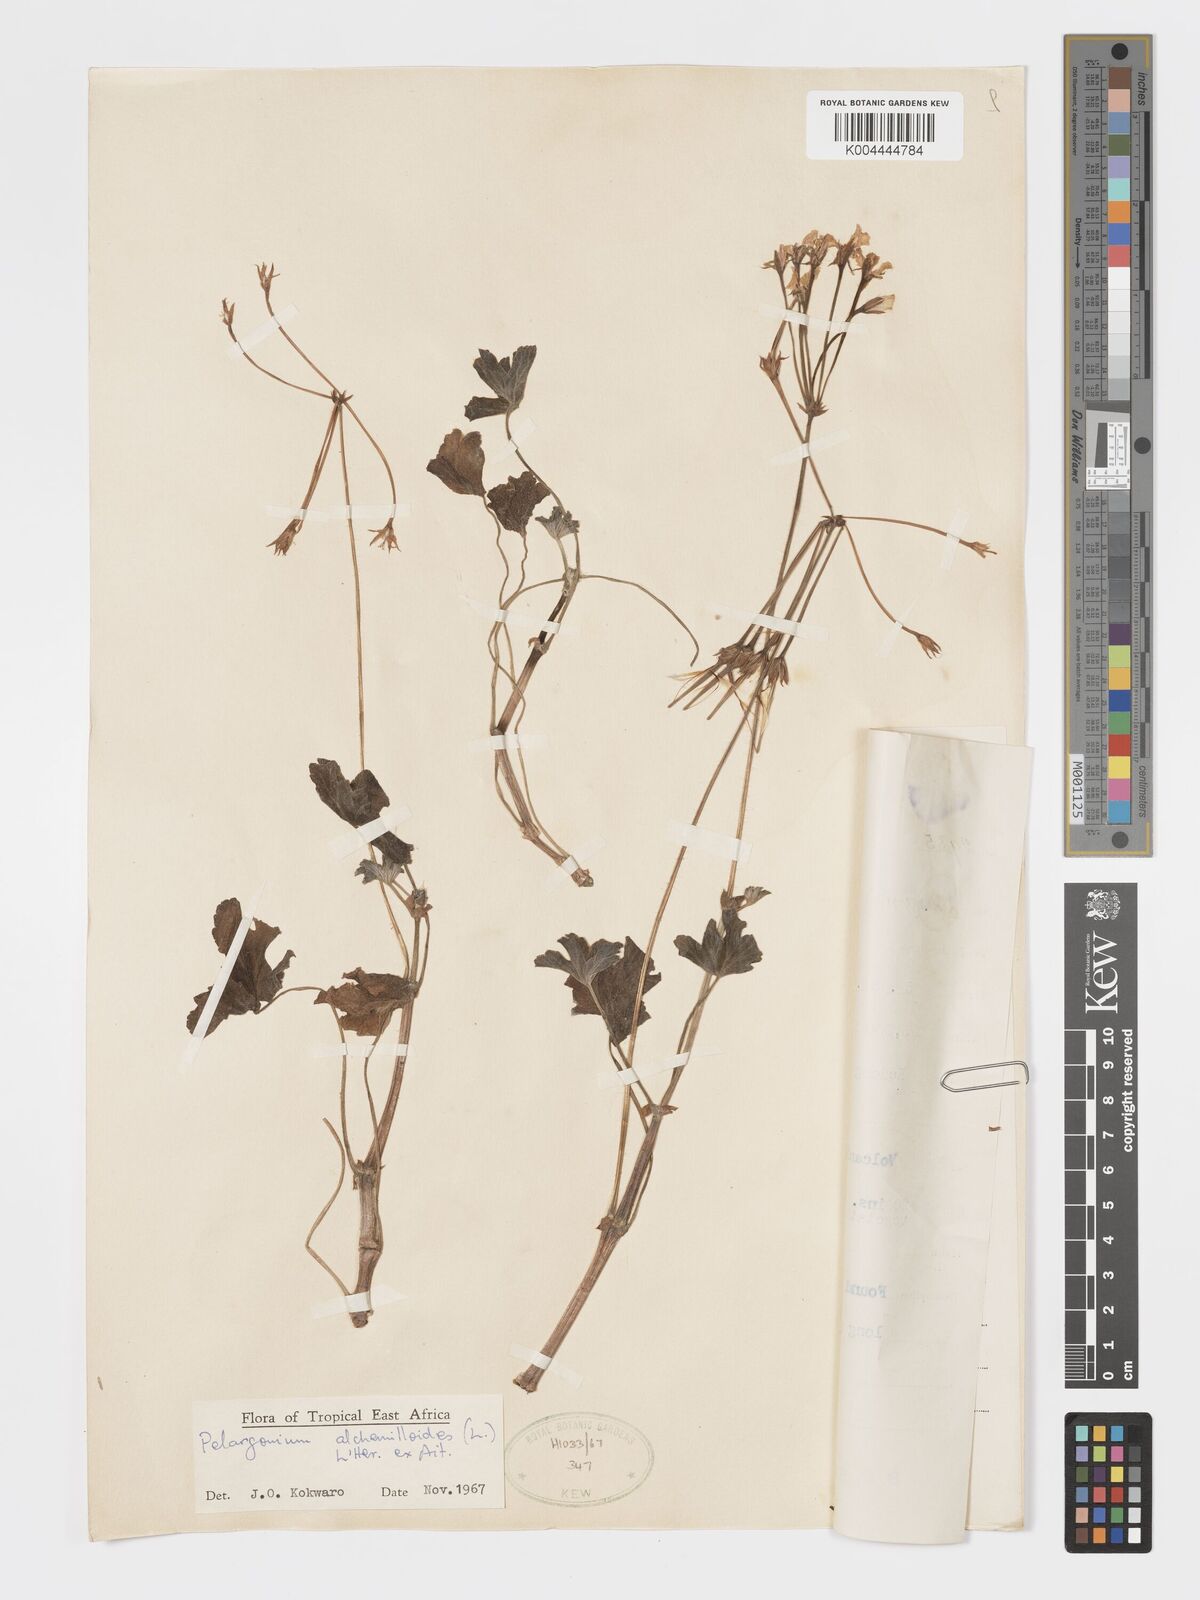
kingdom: Plantae
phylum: Tracheophyta
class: Magnoliopsida
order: Geraniales
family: Geraniaceae
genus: Pelargonium
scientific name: Pelargonium alchemilloides
